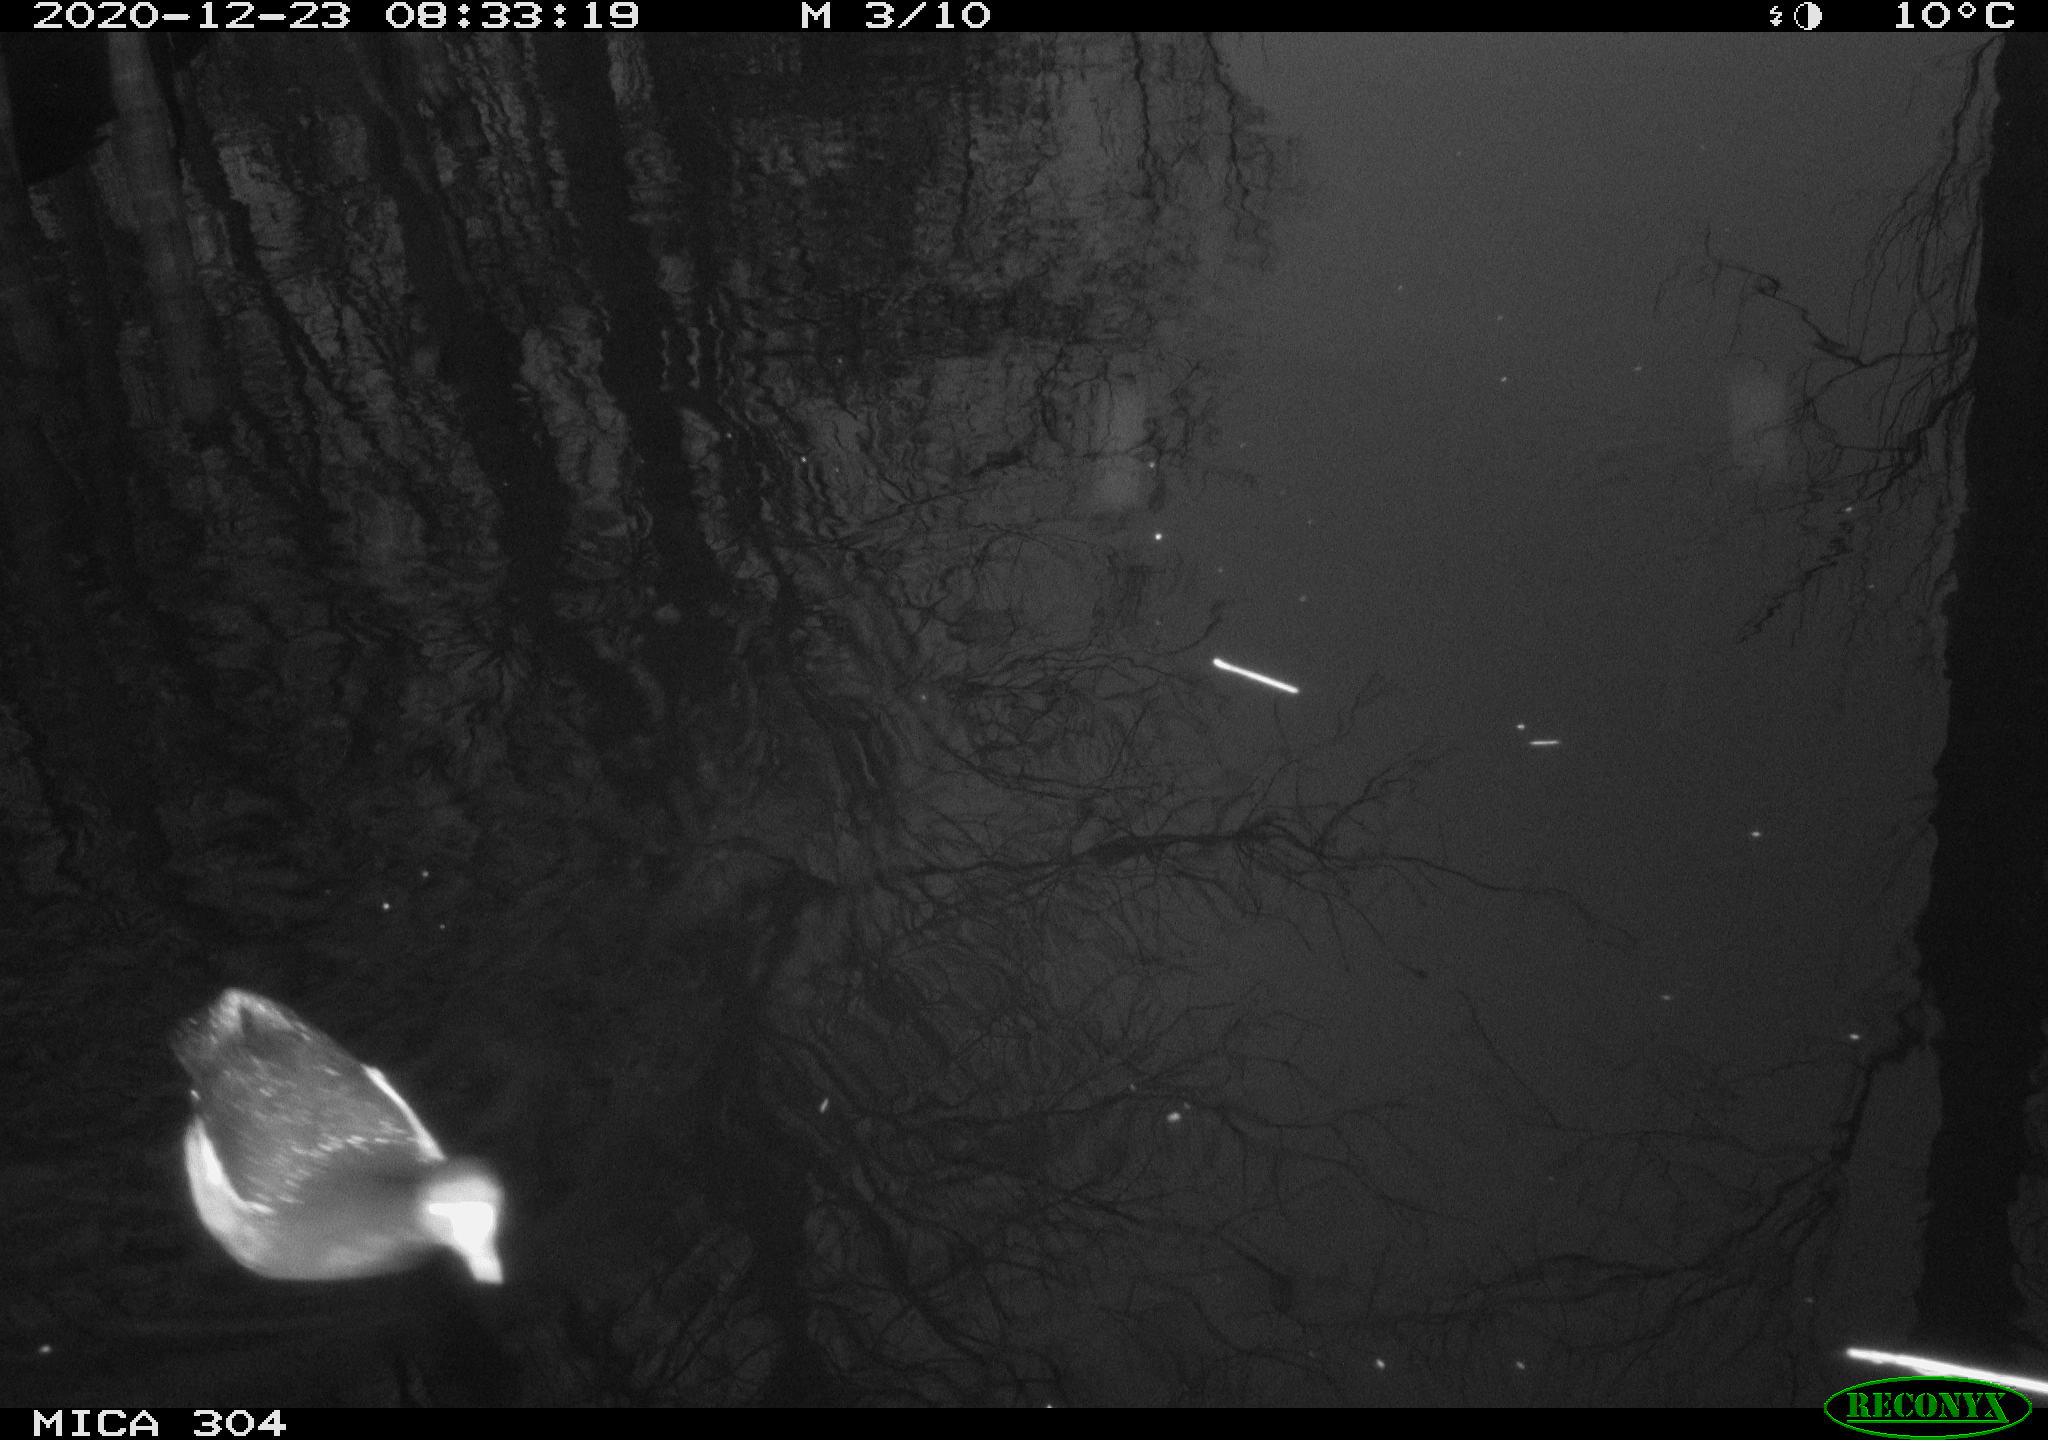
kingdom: Animalia
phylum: Chordata
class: Aves
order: Gruiformes
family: Rallidae
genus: Fulica
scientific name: Fulica atra
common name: Eurasian coot
